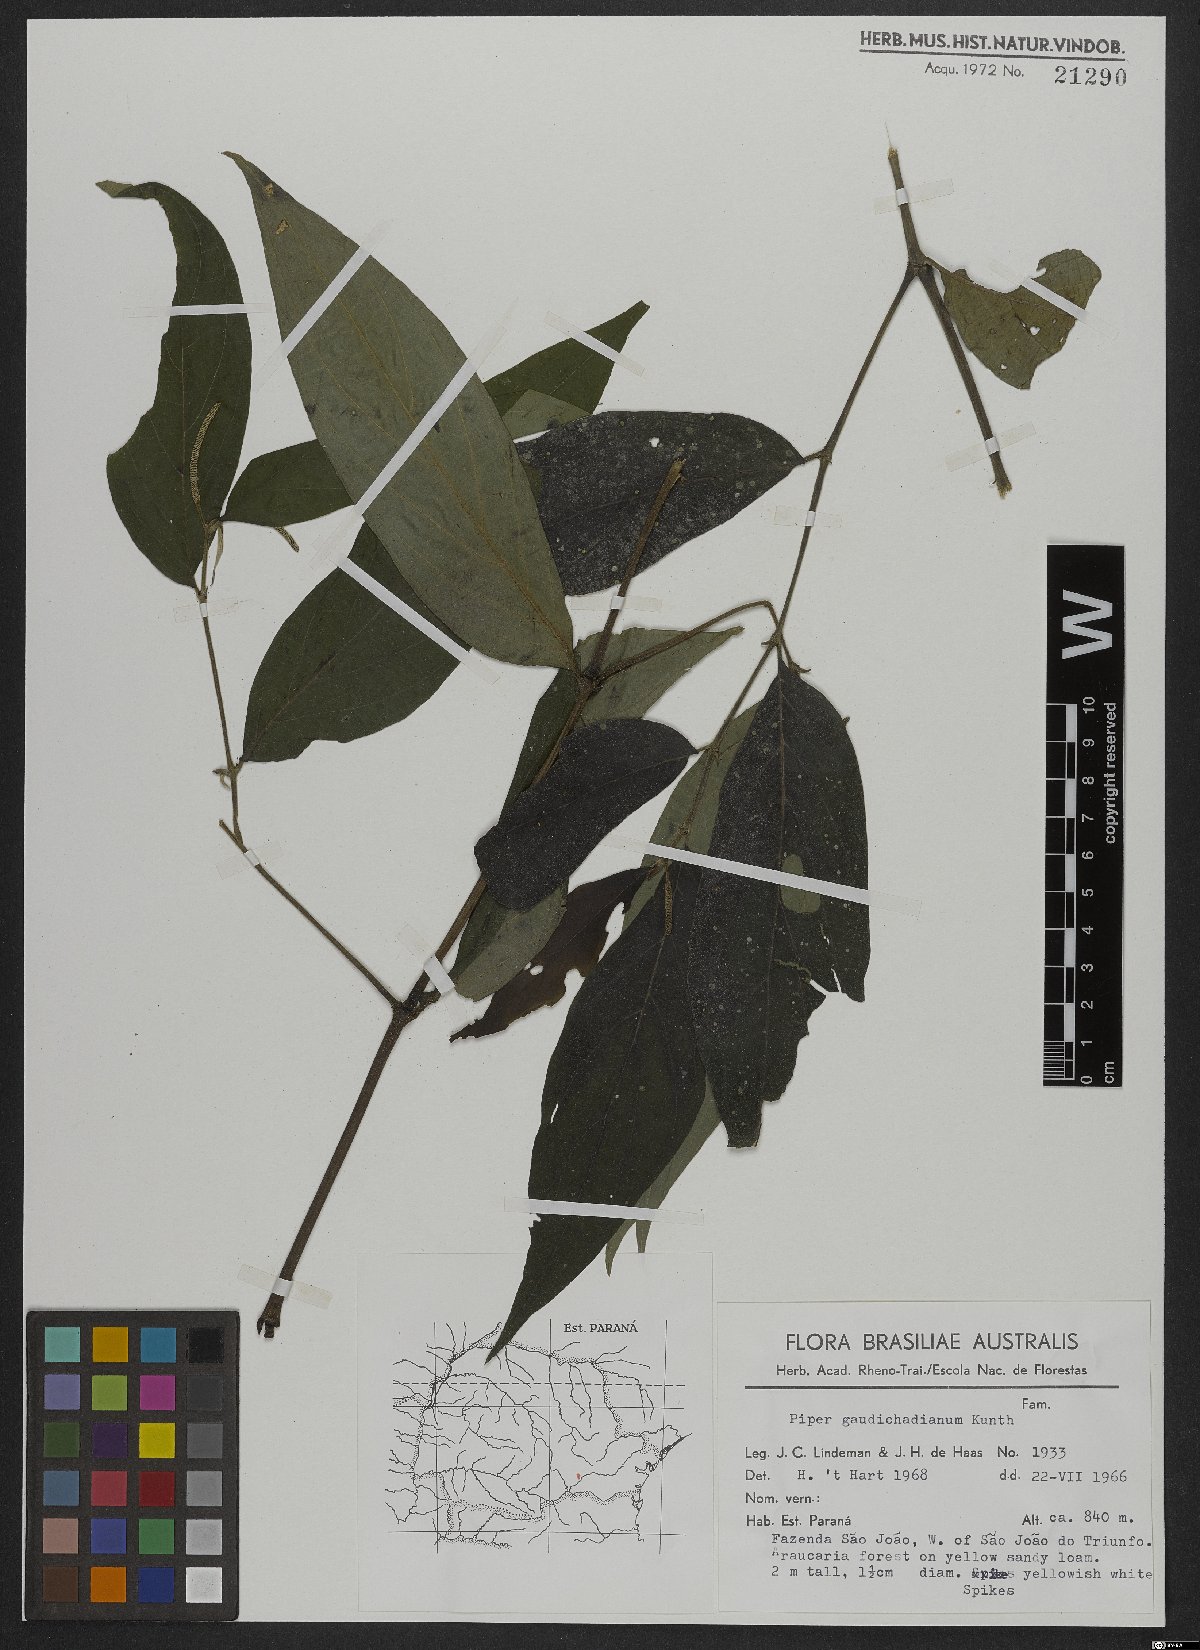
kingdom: Plantae
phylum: Tracheophyta
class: Magnoliopsida
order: Piperales
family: Piperaceae
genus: Piper
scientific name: Piper gaudichaudianum
